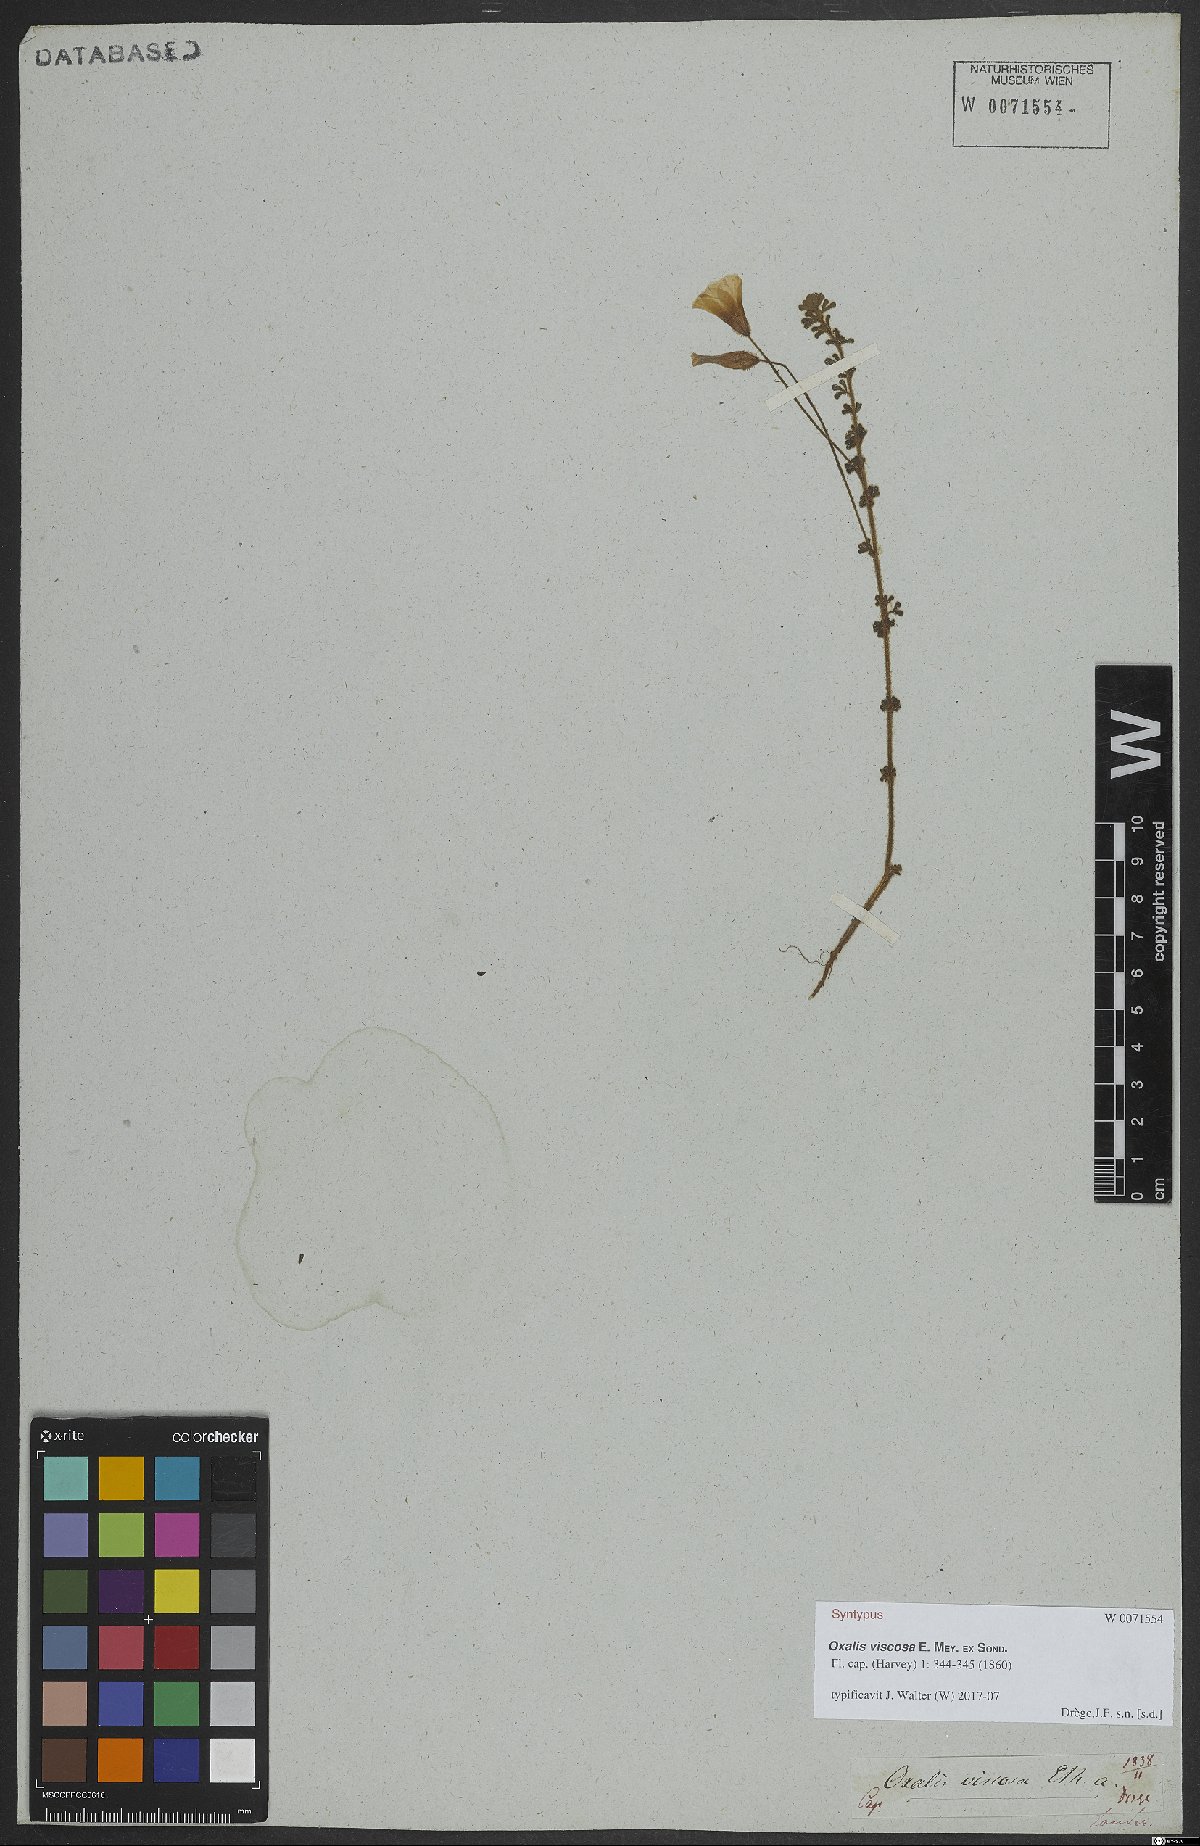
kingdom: Plantae
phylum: Tracheophyta
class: Magnoliopsida
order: Oxalidales
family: Oxalidaceae
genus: Oxalis
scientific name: Oxalis viscosa
